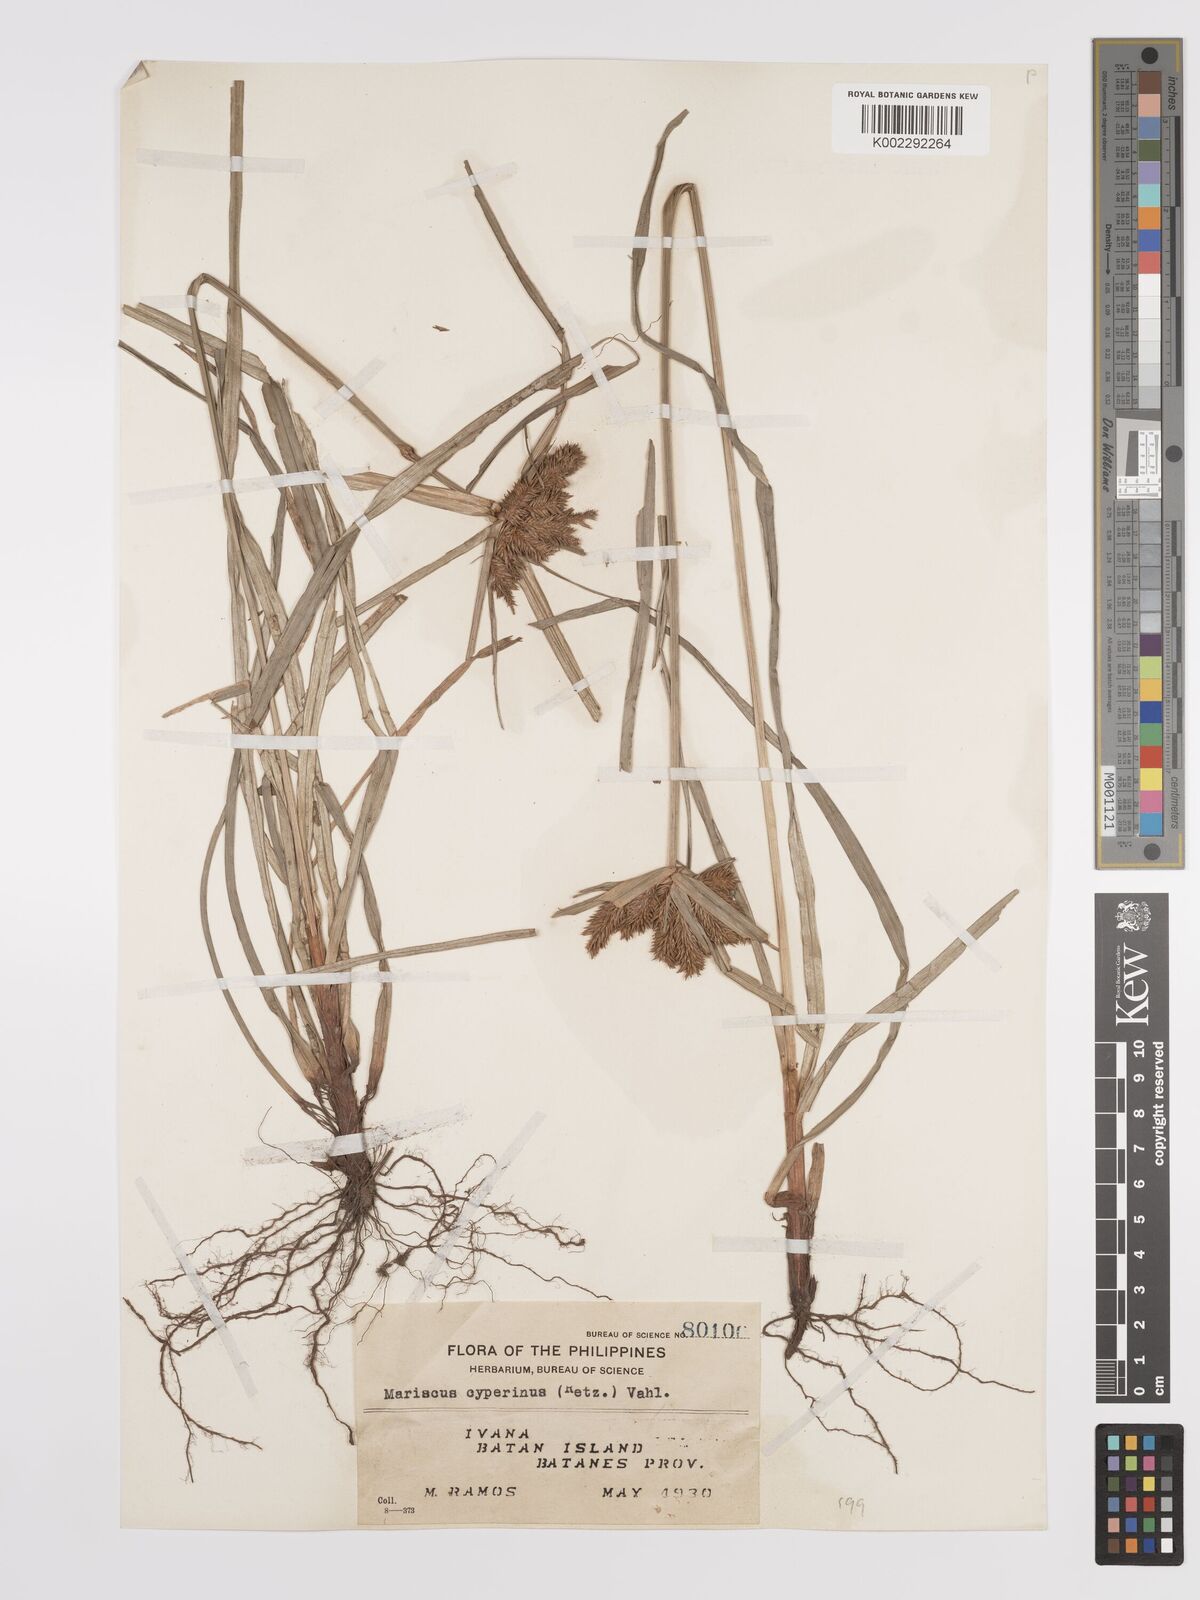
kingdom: Plantae
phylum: Tracheophyta
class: Liliopsida
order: Poales
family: Cyperaceae
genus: Cyperus
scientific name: Cyperus cyperinus
